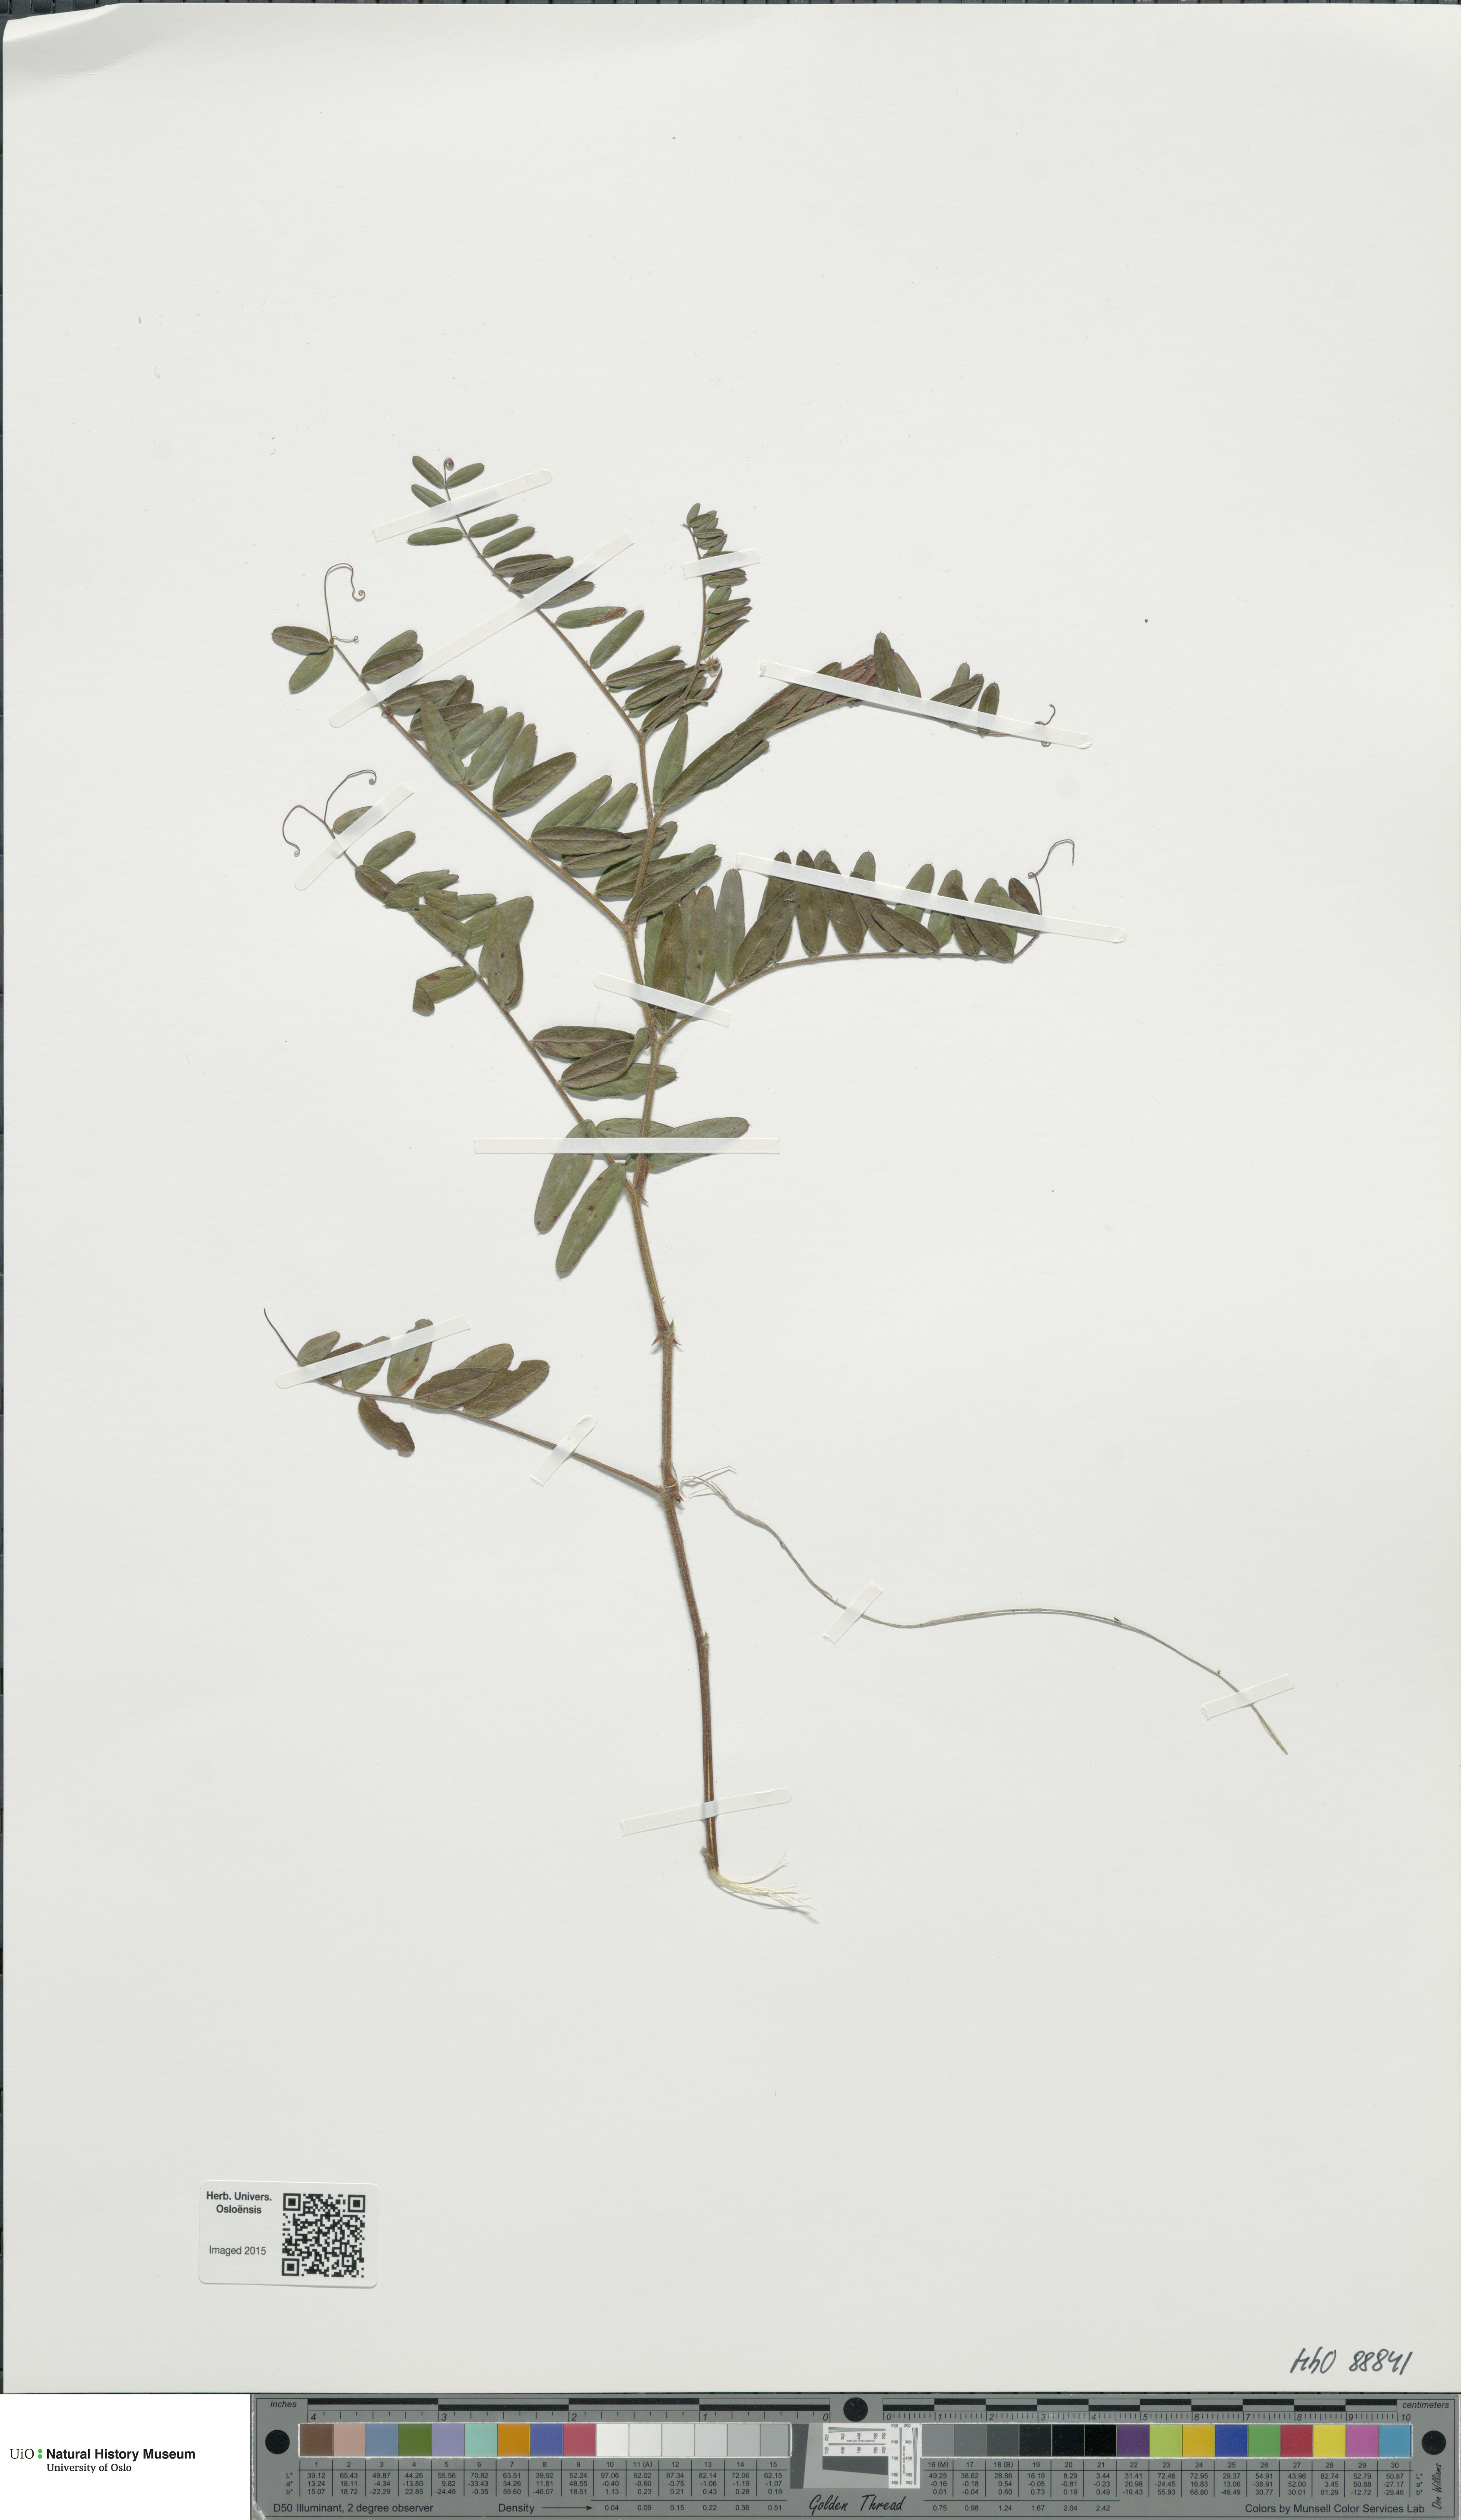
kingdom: Plantae
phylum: Tracheophyta
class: Magnoliopsida
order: Fabales
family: Fabaceae
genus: Vicia
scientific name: Vicia cassubica
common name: Danzig vetch
